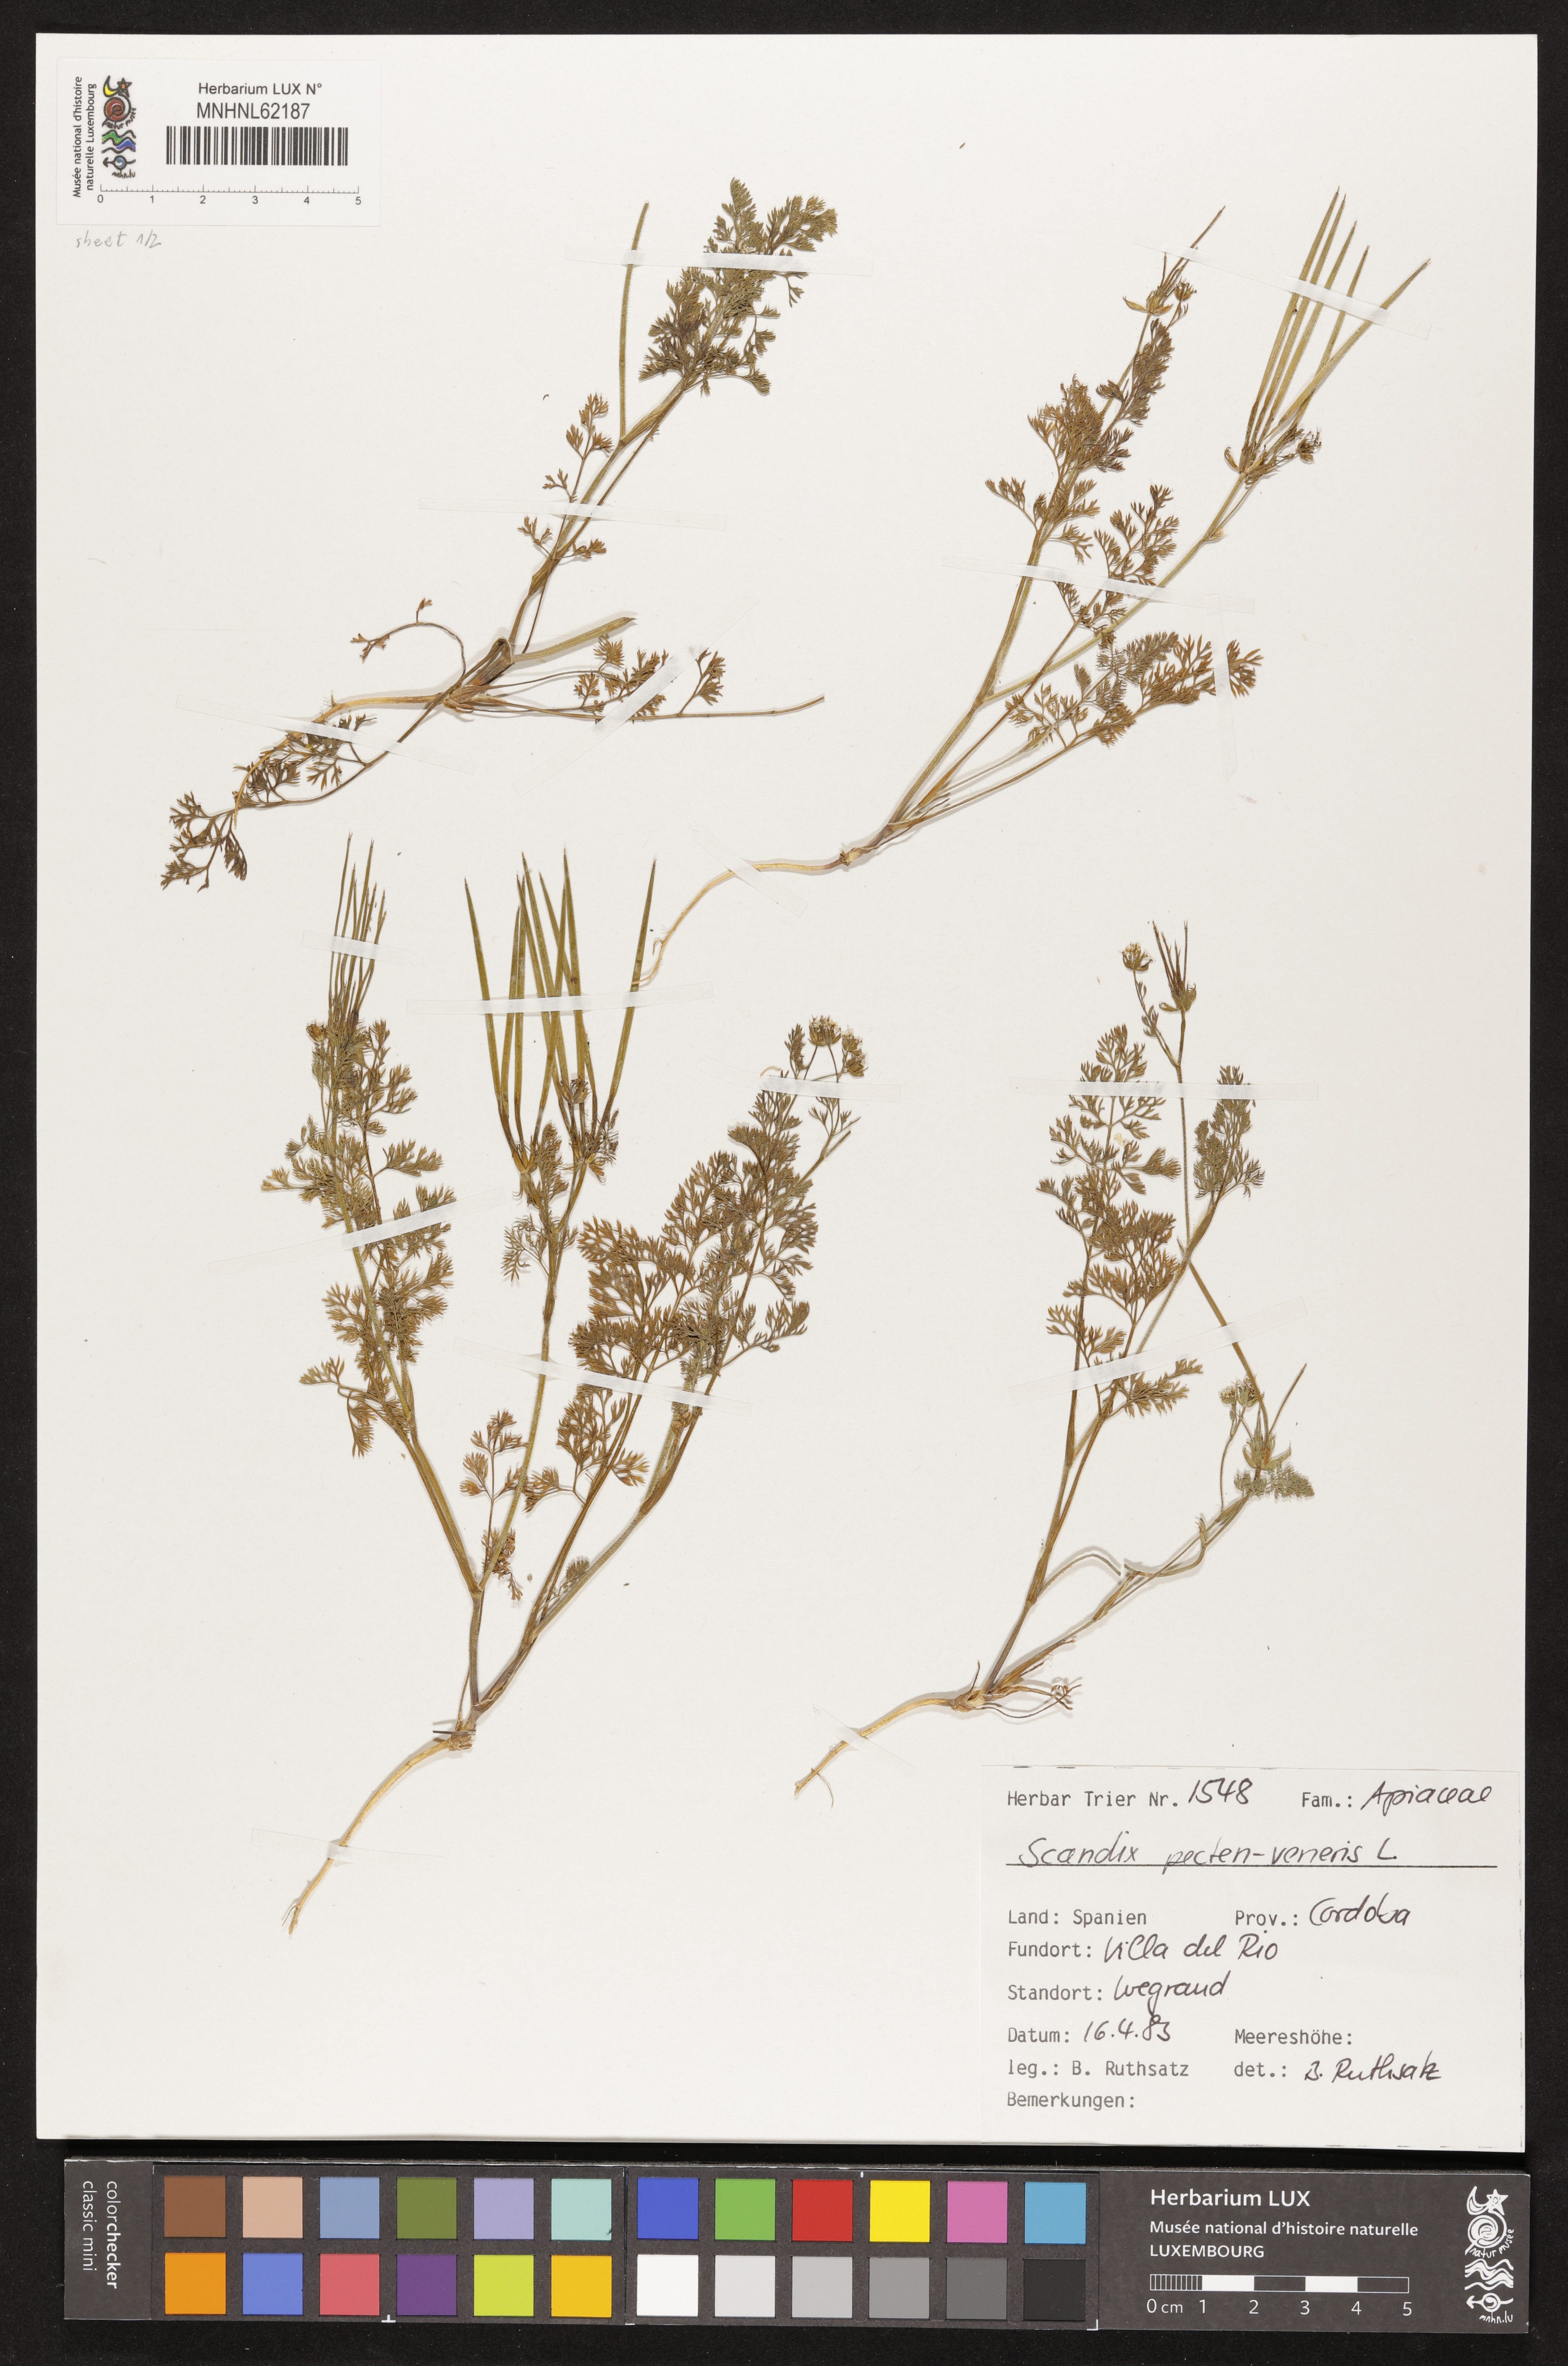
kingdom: Plantae
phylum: Tracheophyta
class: Magnoliopsida
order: Apiales
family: Apiaceae
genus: Scandix
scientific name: Scandix pecten-veneris
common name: Shepherd's-needle
